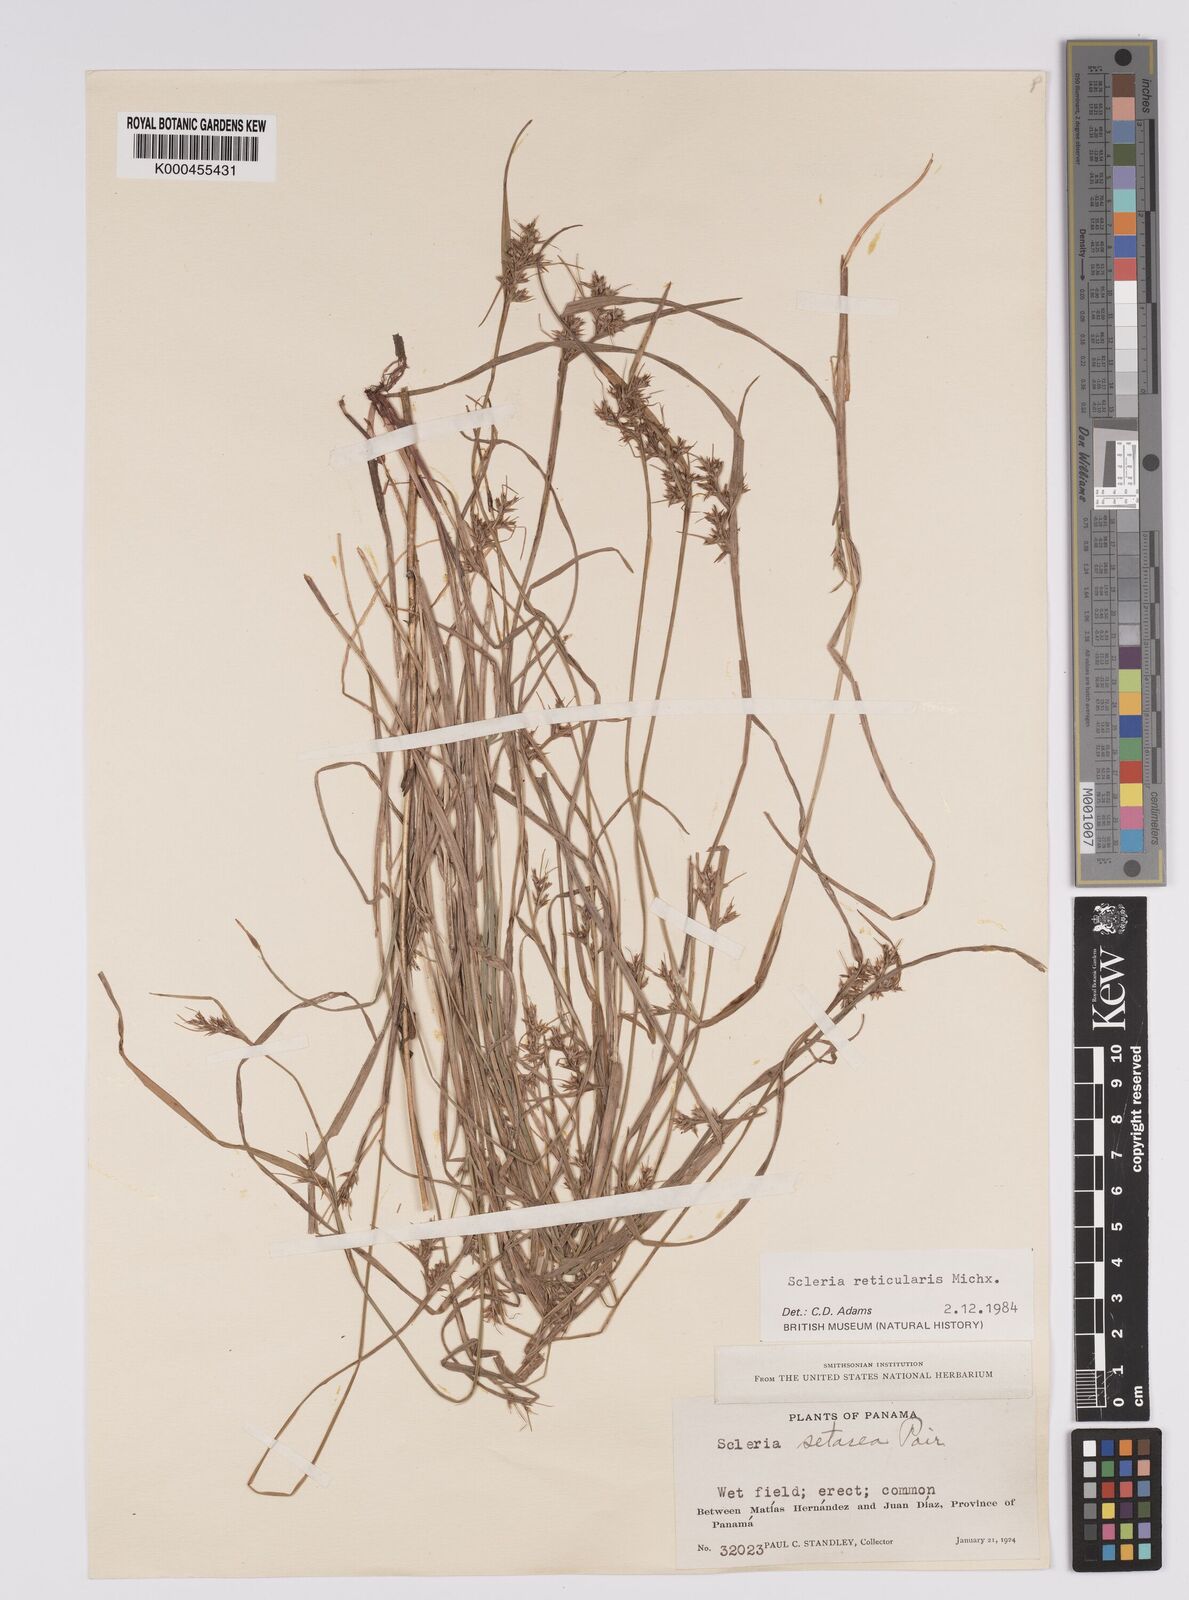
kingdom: Plantae
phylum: Tracheophyta
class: Liliopsida
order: Poales
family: Cyperaceae
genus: Scleria
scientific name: Scleria
